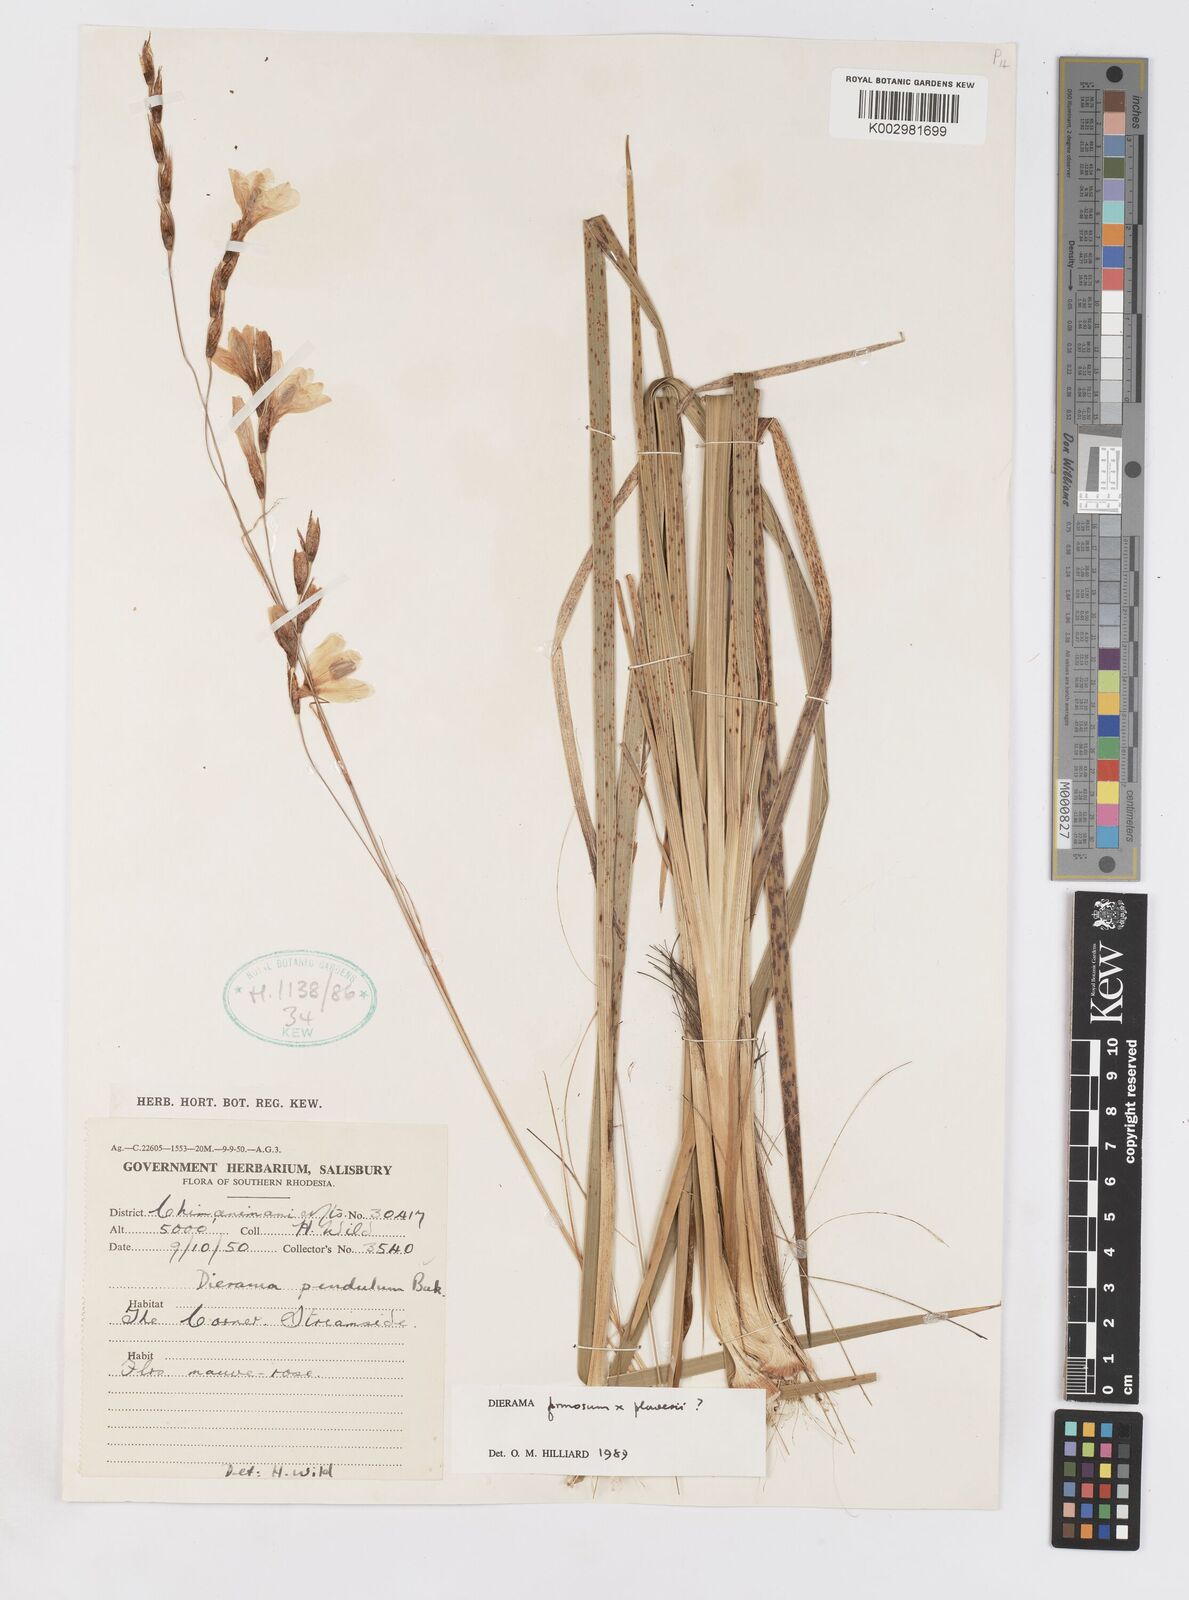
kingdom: Plantae
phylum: Tracheophyta
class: Liliopsida
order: Asparagales
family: Iridaceae
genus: Dierama
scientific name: Dierama formosum
